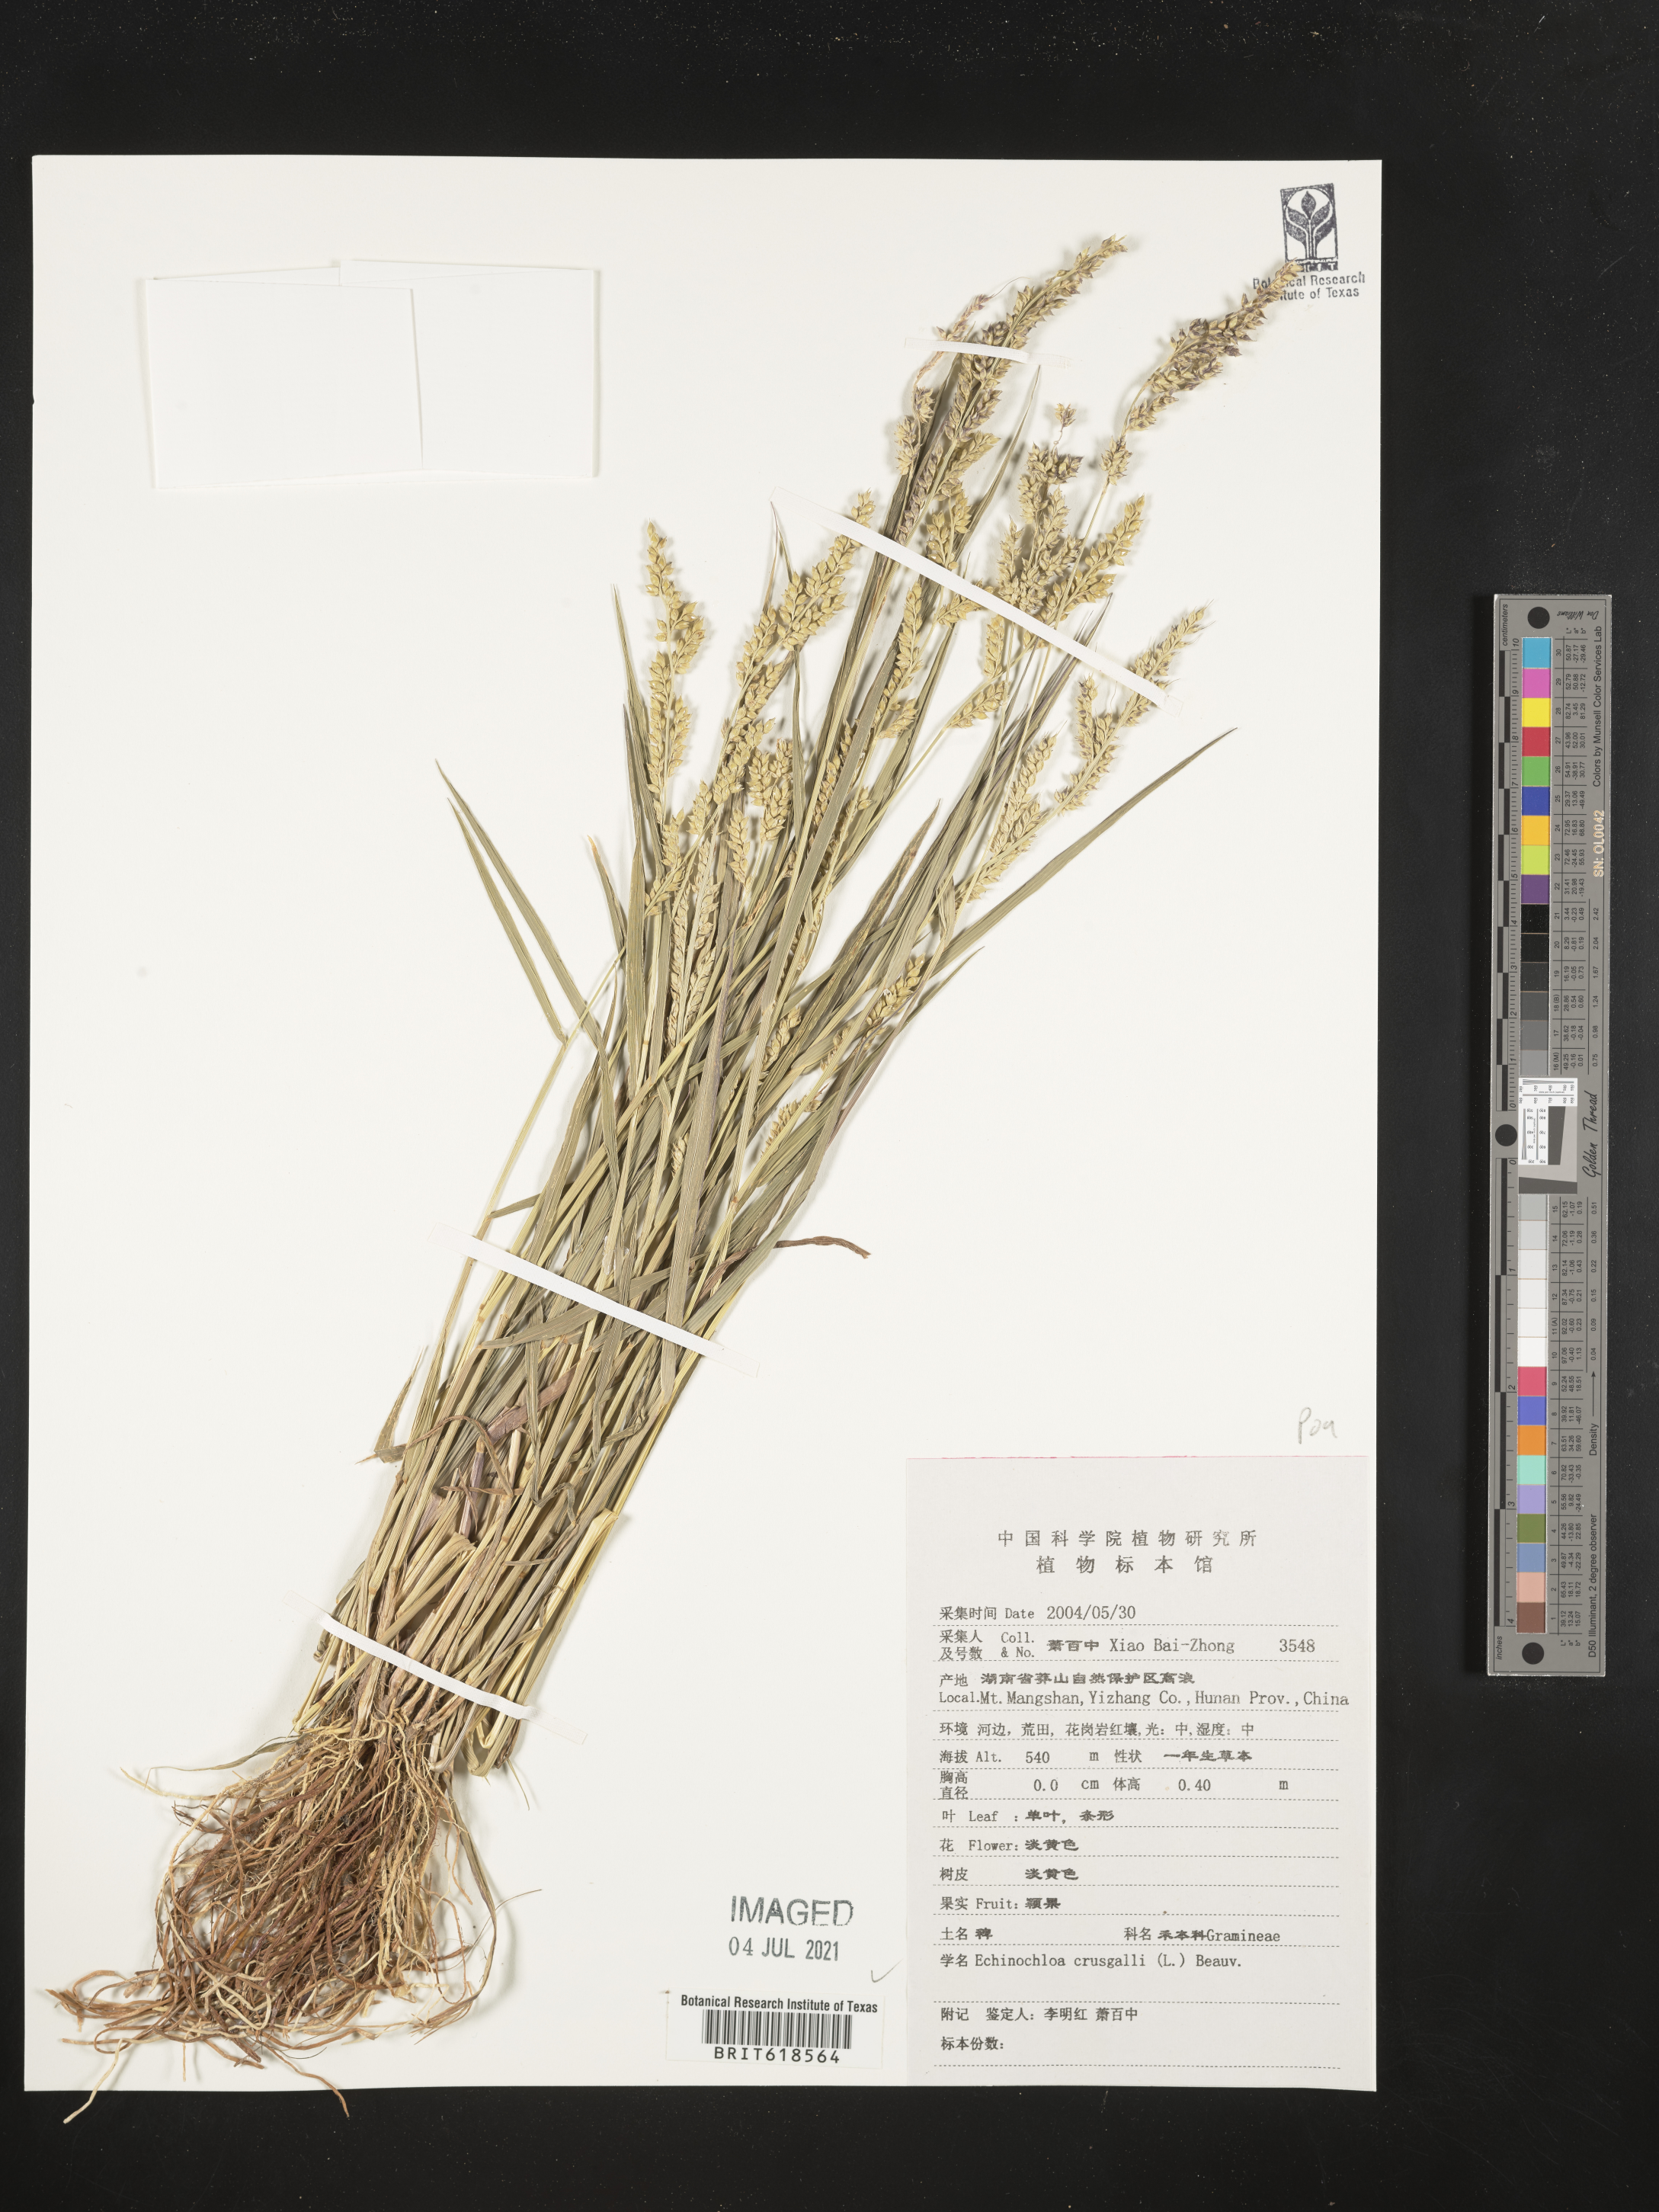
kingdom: Plantae
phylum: Tracheophyta
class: Liliopsida
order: Poales
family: Poaceae
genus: Echinochloa
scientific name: Echinochloa crus-galli
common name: Cockspur
